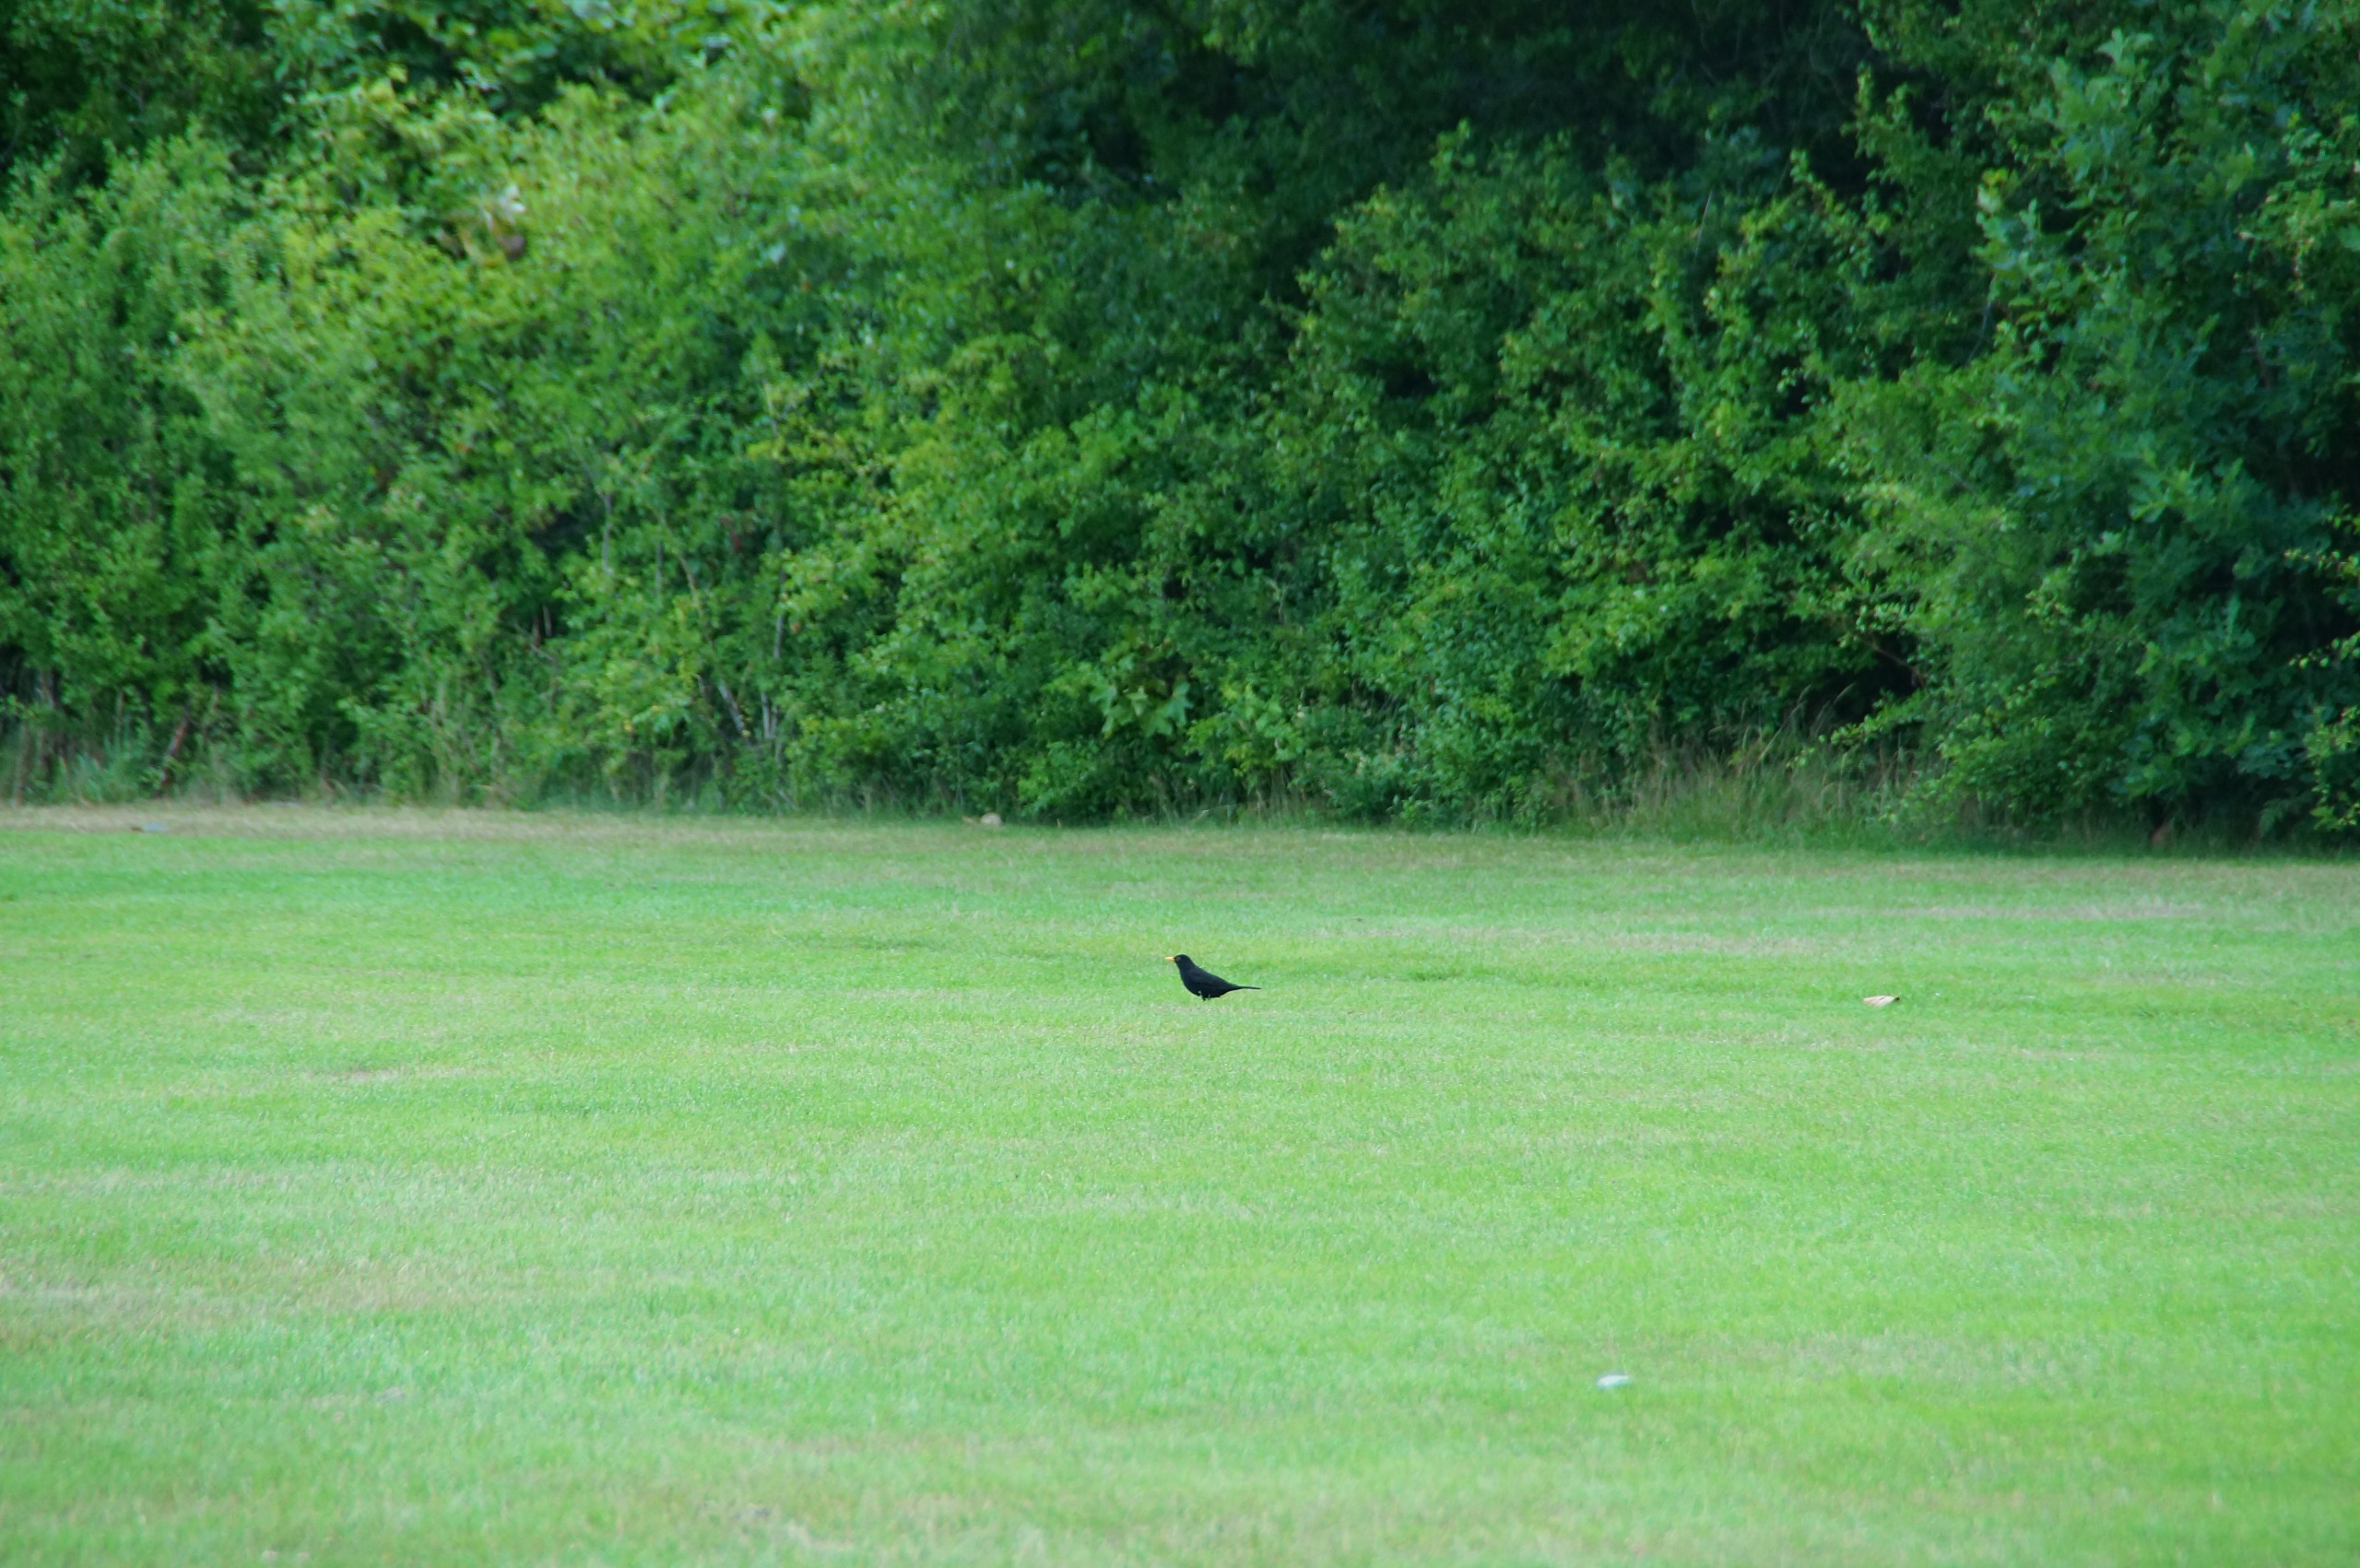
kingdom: Animalia
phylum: Chordata
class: Aves
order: Passeriformes
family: Turdidae
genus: Turdus
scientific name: Turdus merula
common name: Solsort
